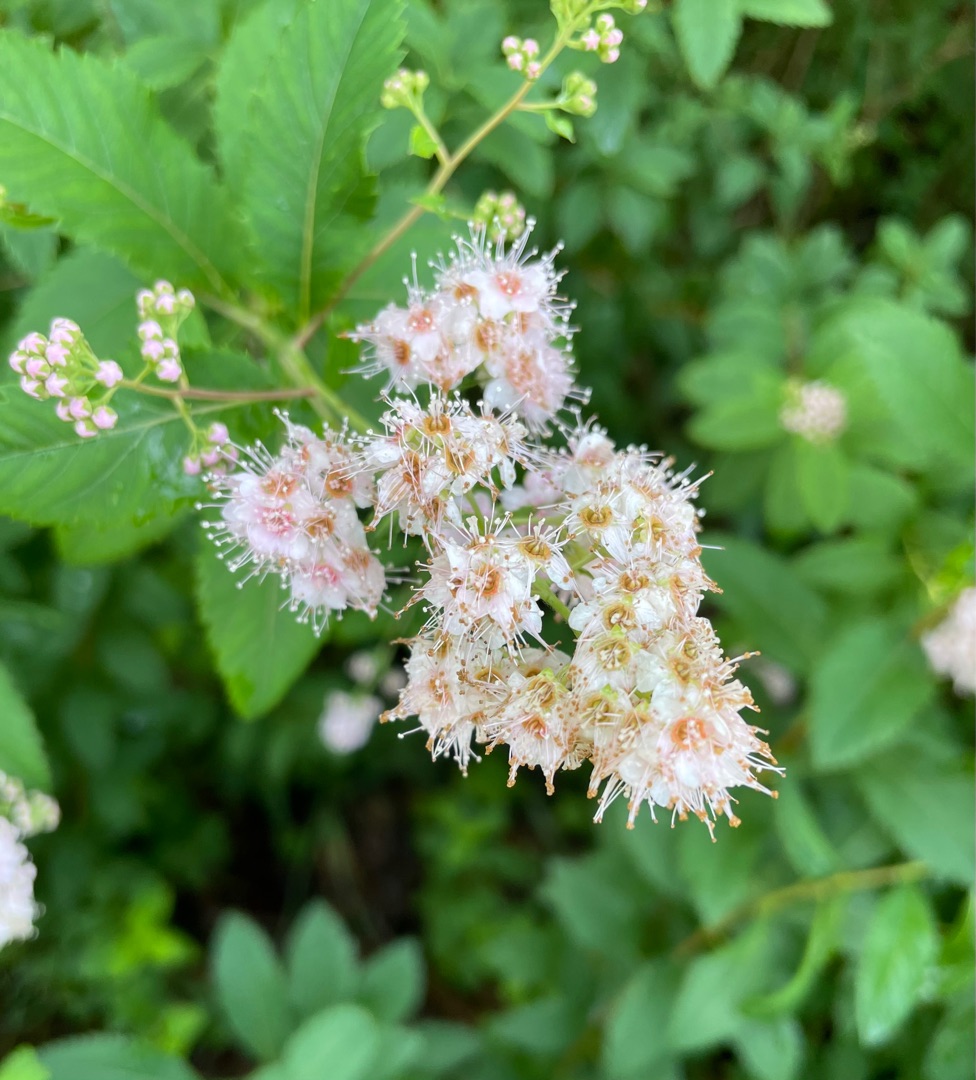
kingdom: Plantae
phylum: Tracheophyta
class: Magnoliopsida
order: Rosales
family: Rosaceae
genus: Spiraea
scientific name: Spiraea alba
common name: Bredbladet spiræa
